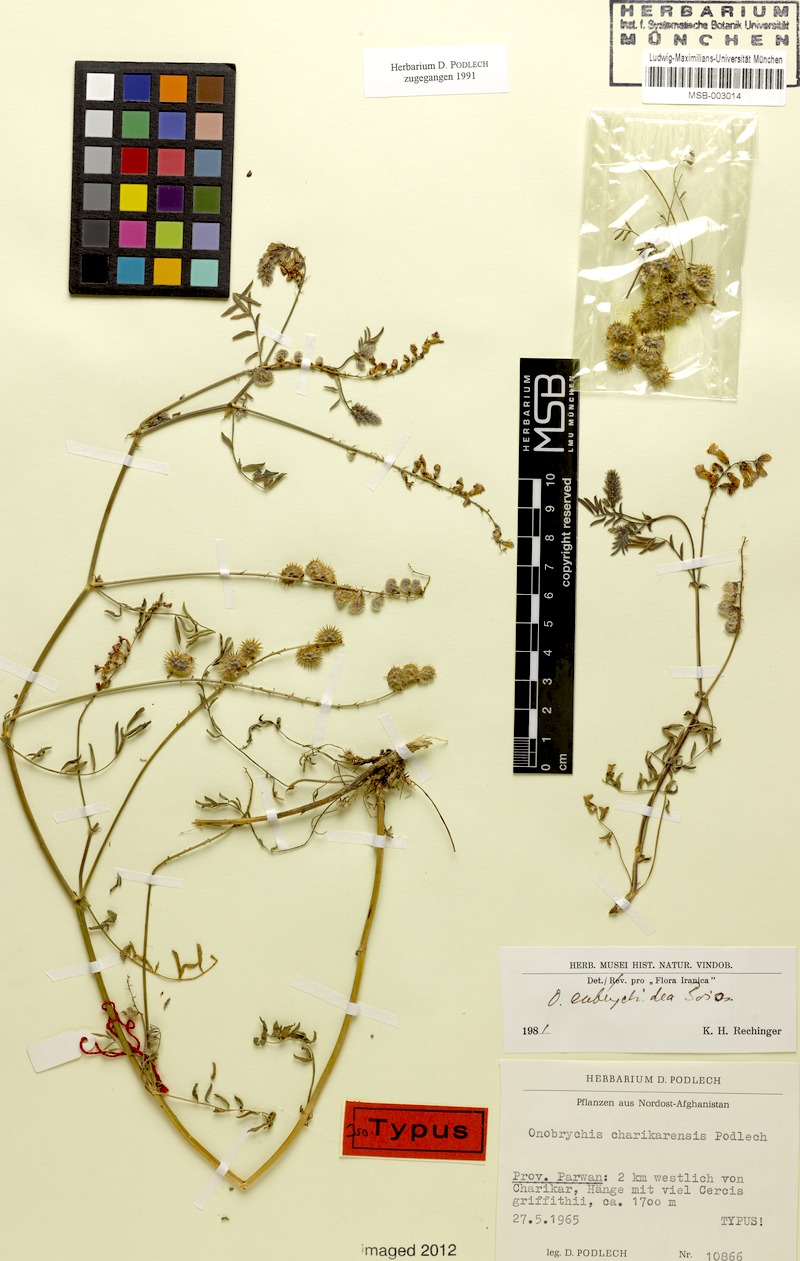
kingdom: Plantae
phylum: Tracheophyta
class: Magnoliopsida
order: Fabales
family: Fabaceae
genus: Onobrychis
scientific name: Onobrychis eubrychidea
